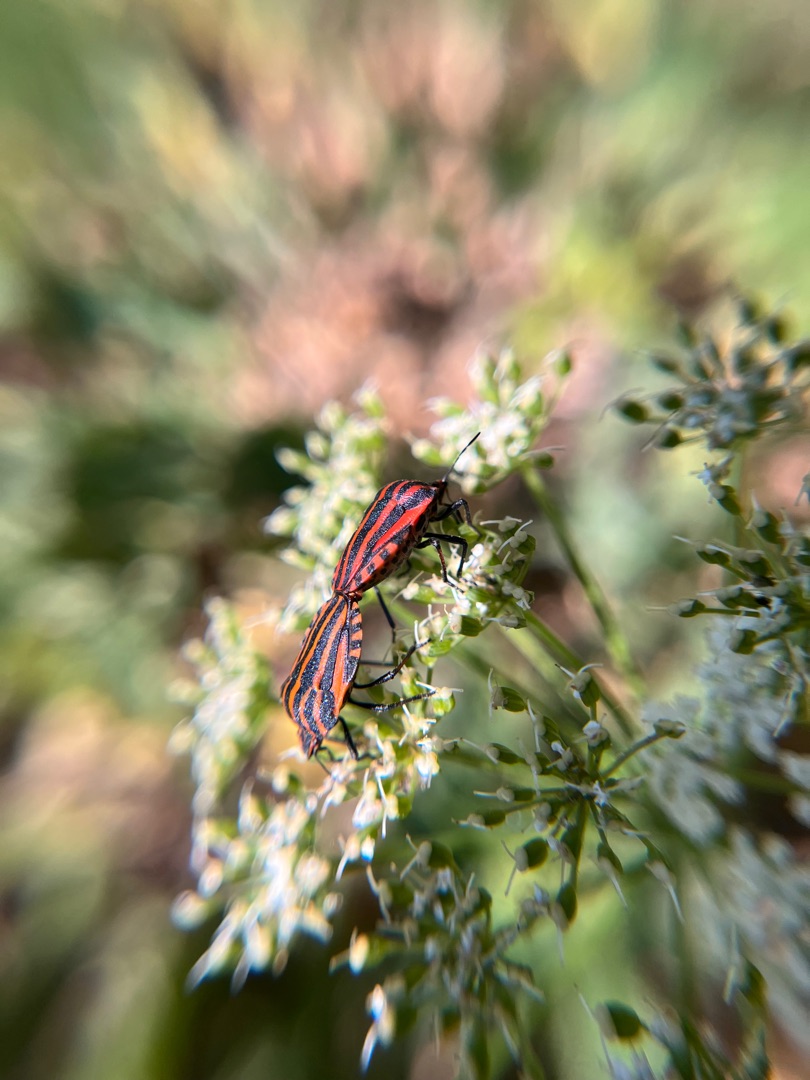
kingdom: Animalia
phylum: Arthropoda
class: Insecta
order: Hemiptera
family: Pentatomidae
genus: Graphosoma
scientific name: Graphosoma italicum
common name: Stribetæge
